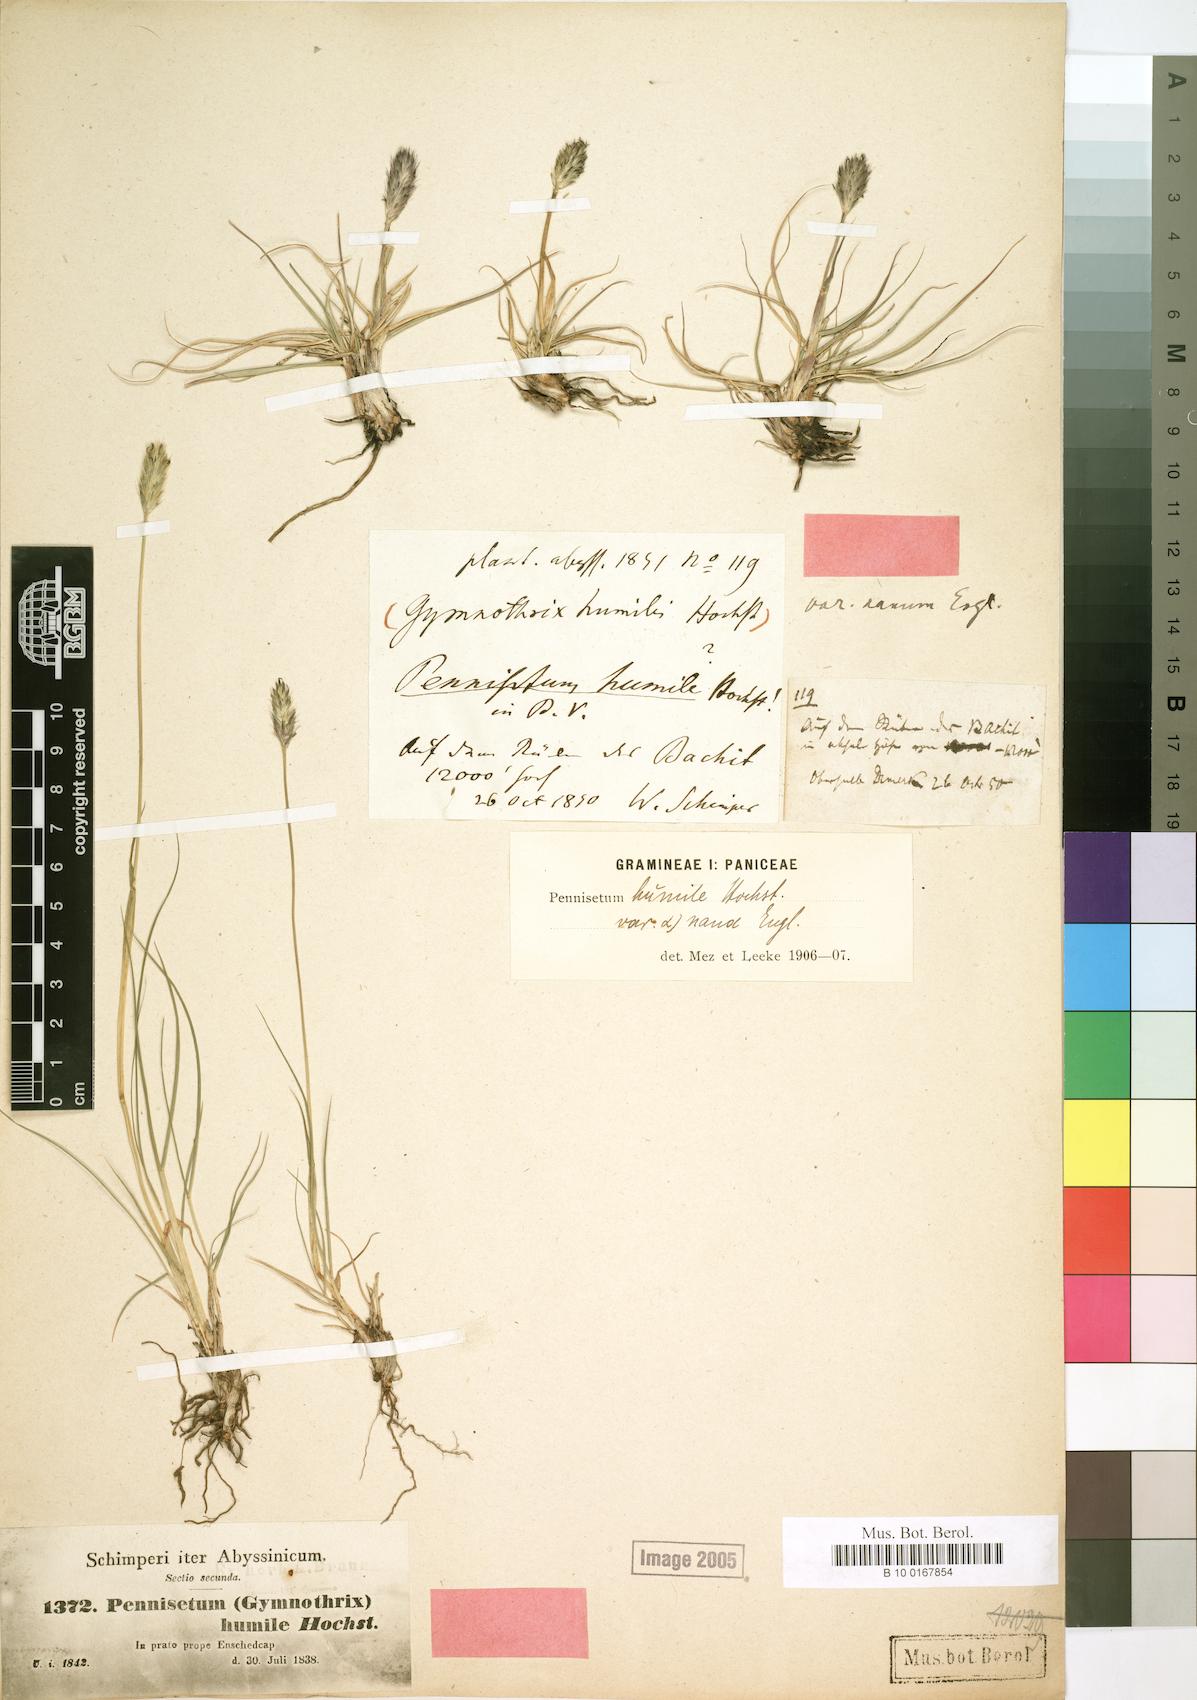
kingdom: Plantae
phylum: Tracheophyta
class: Liliopsida
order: Poales
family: Poaceae
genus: Cenchrus
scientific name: Cenchrus nanus
